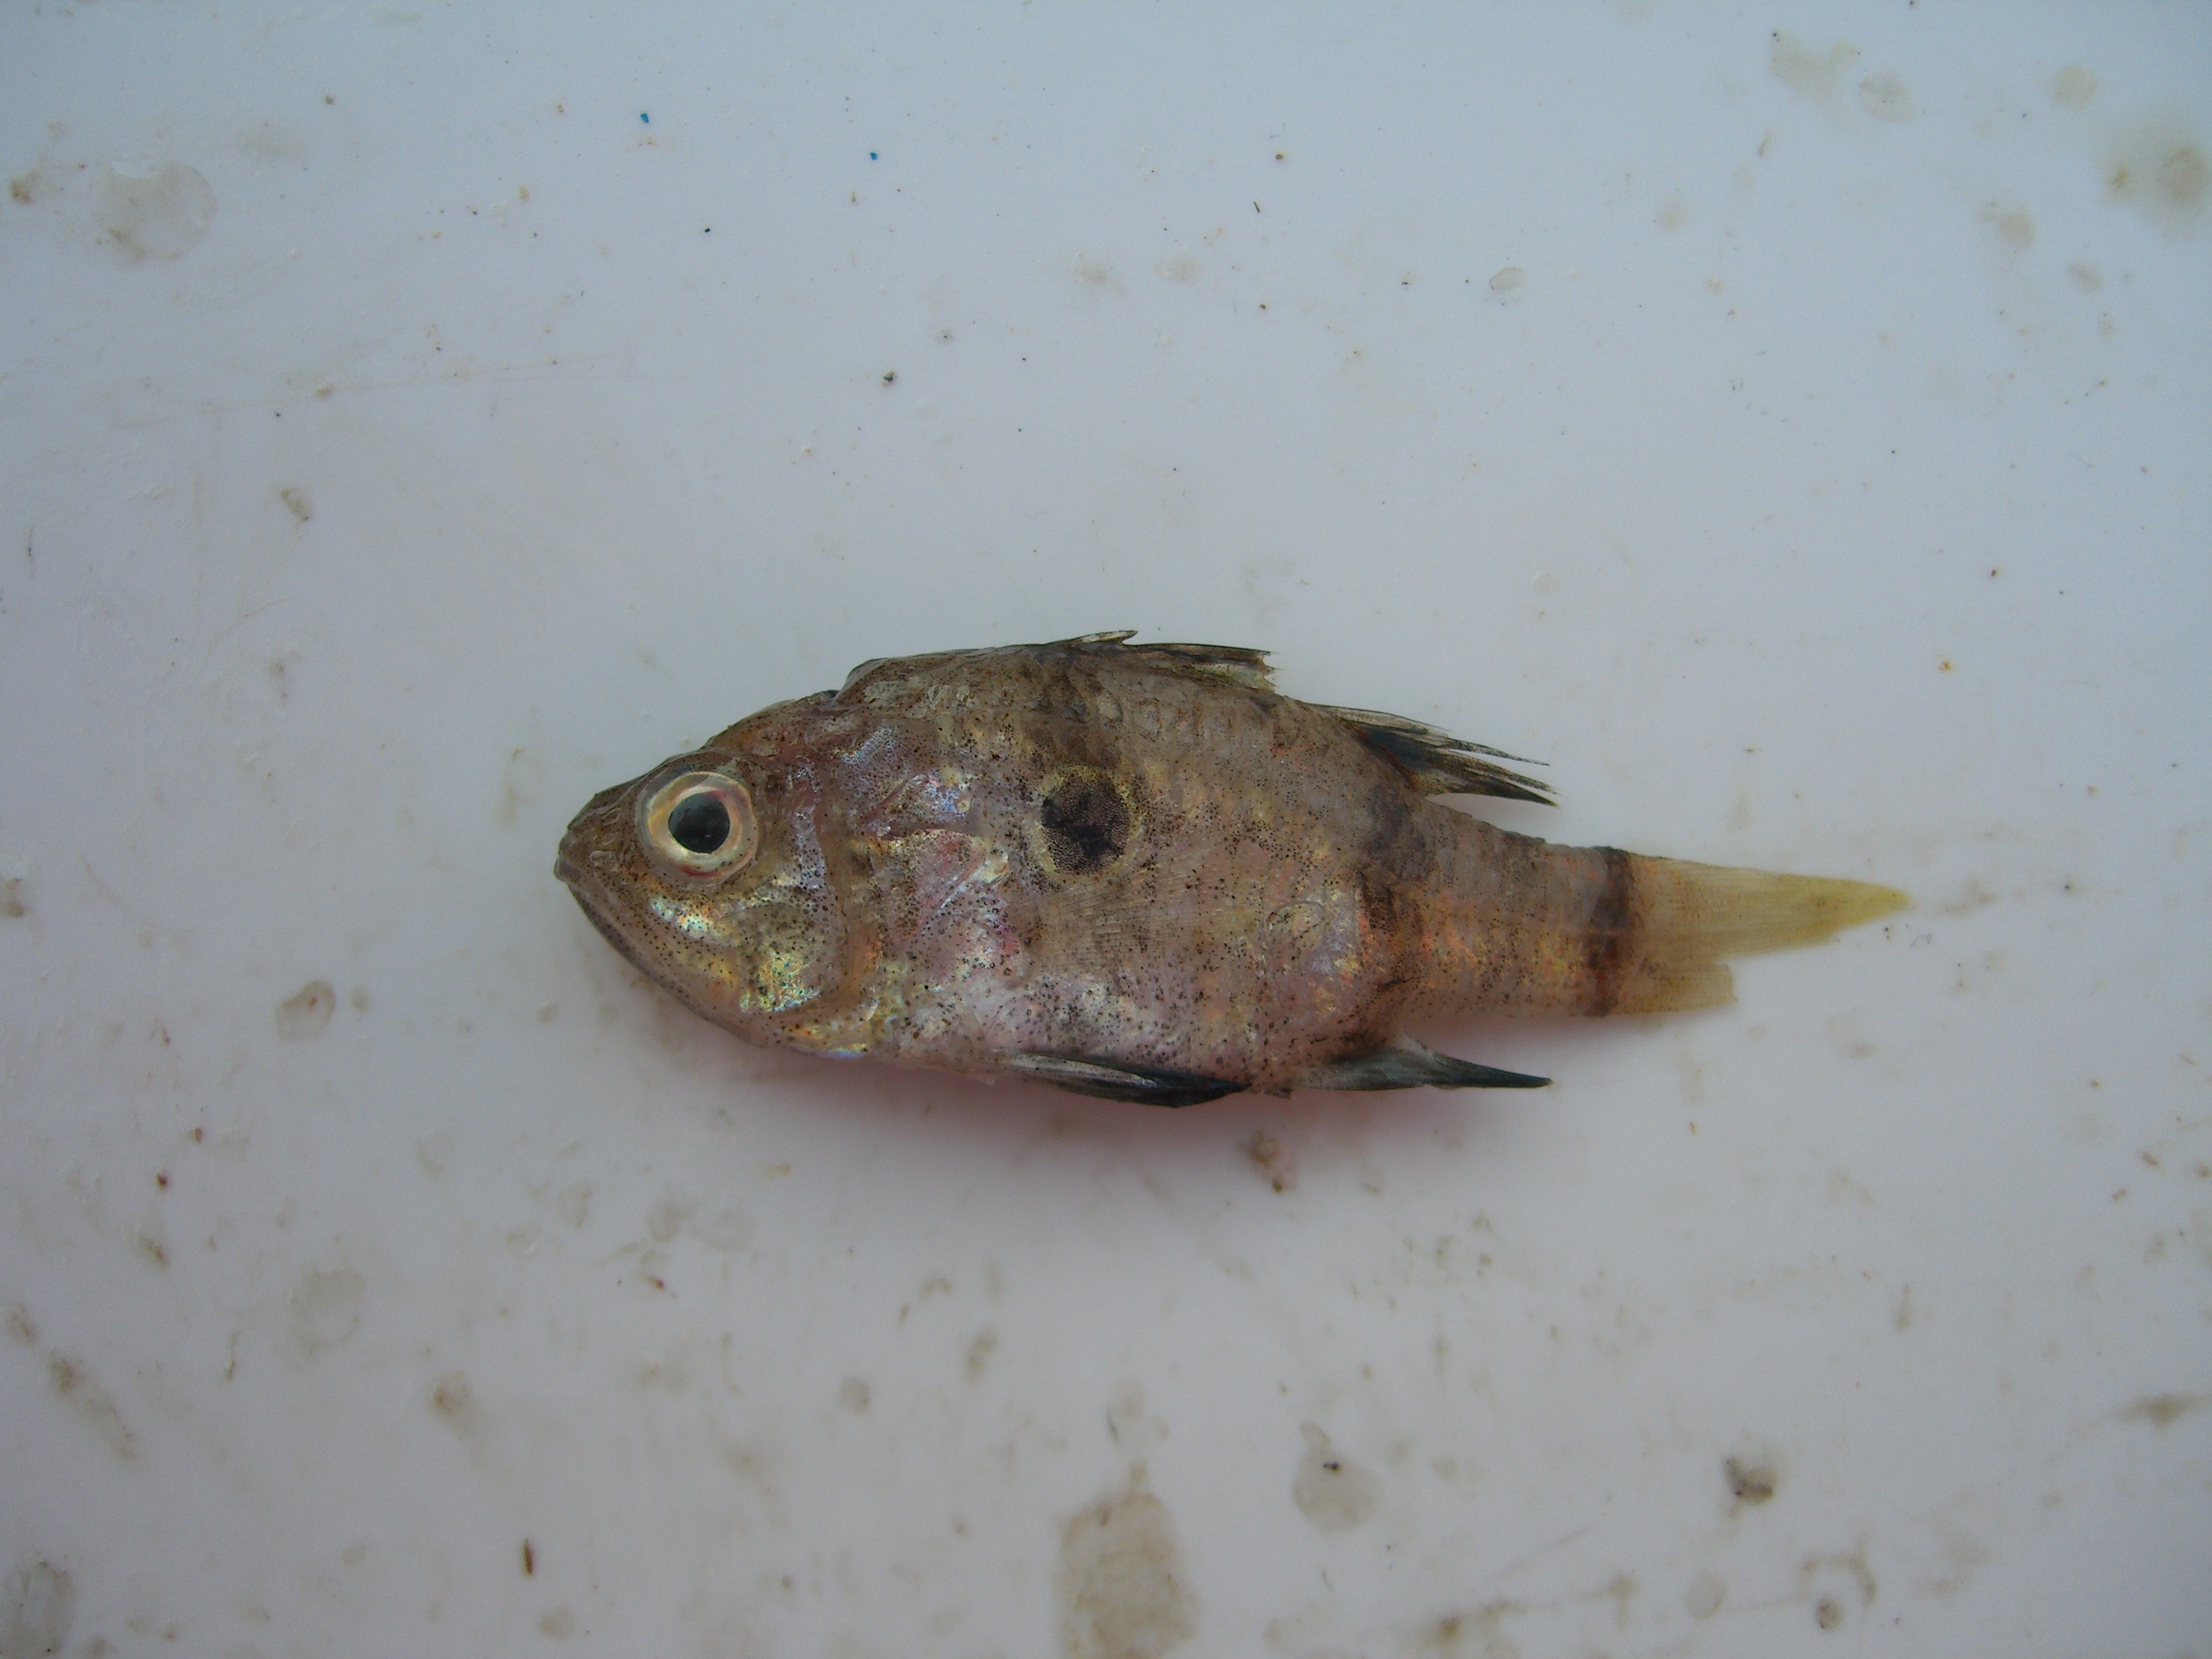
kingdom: Animalia
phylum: Chordata
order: Perciformes
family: Apogonidae
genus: Apogonichthyoides
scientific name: Apogonichthyoides pharaonis
